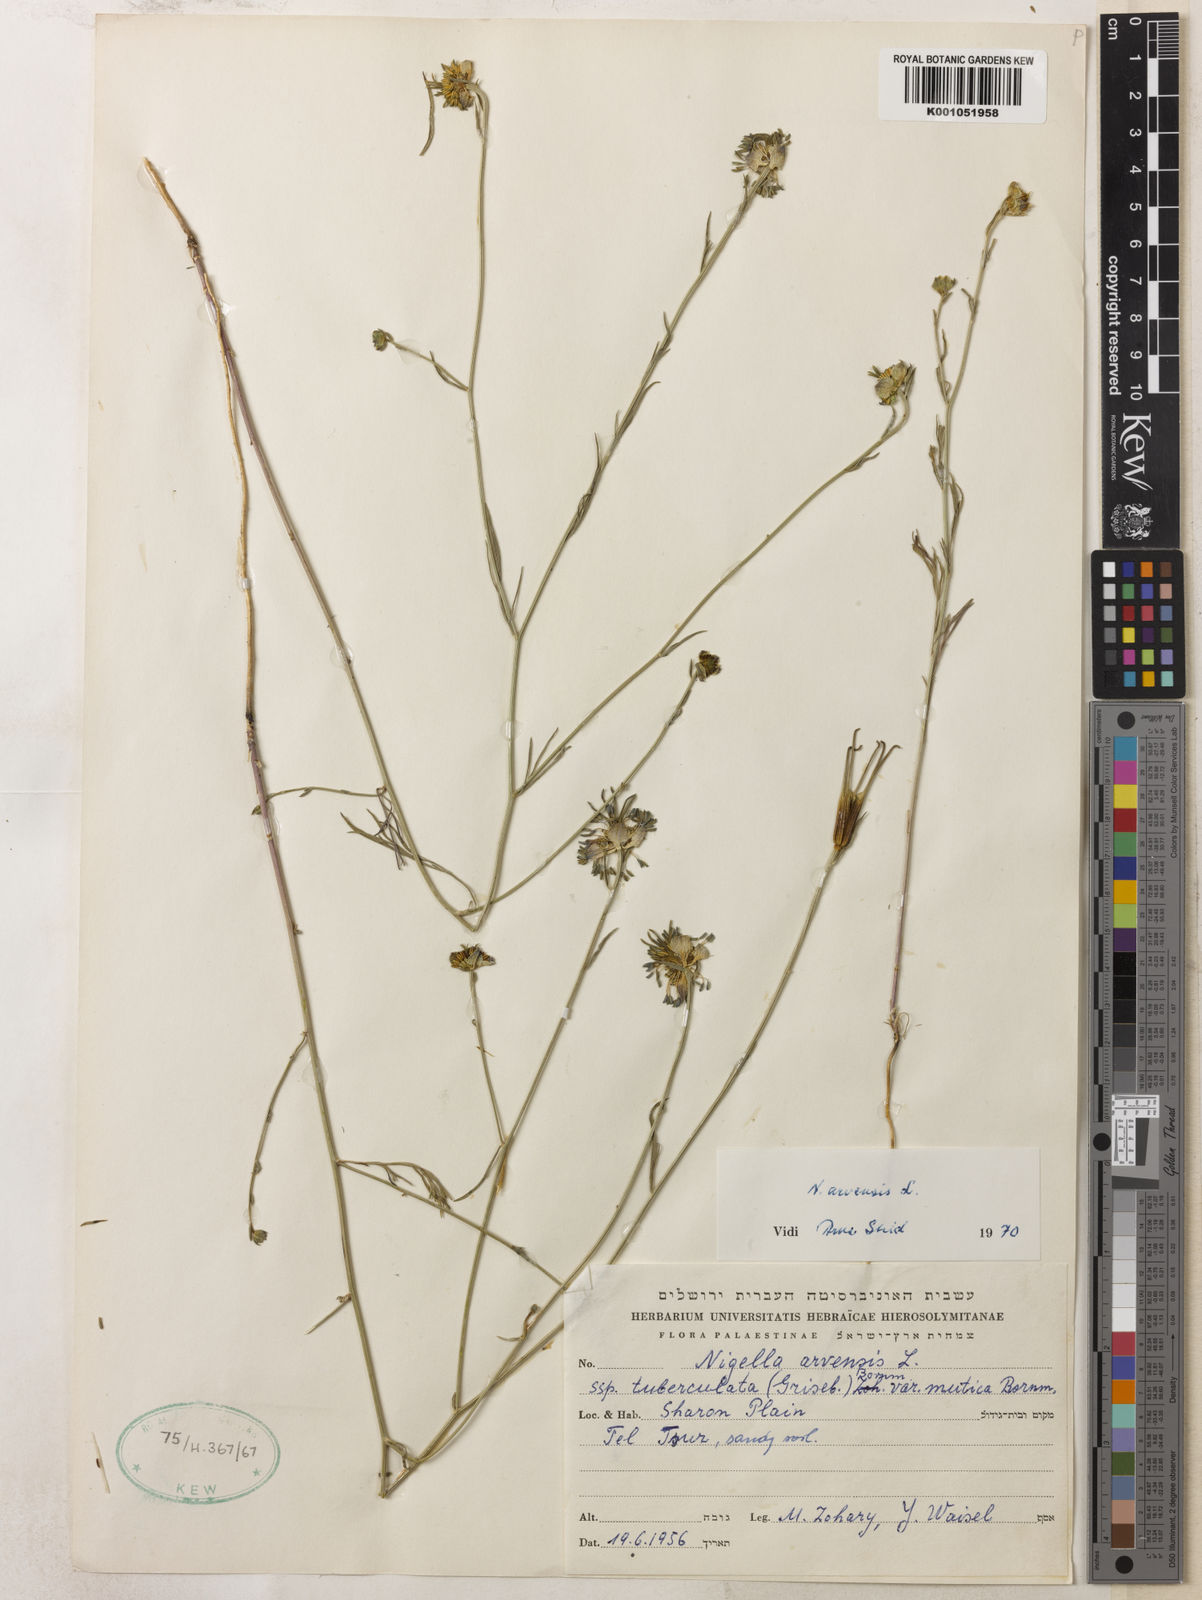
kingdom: Plantae
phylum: Tracheophyta
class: Magnoliopsida
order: Ranunculales
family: Ranunculaceae
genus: Nigella
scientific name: Nigella arvensis
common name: Wild fennel-flower
